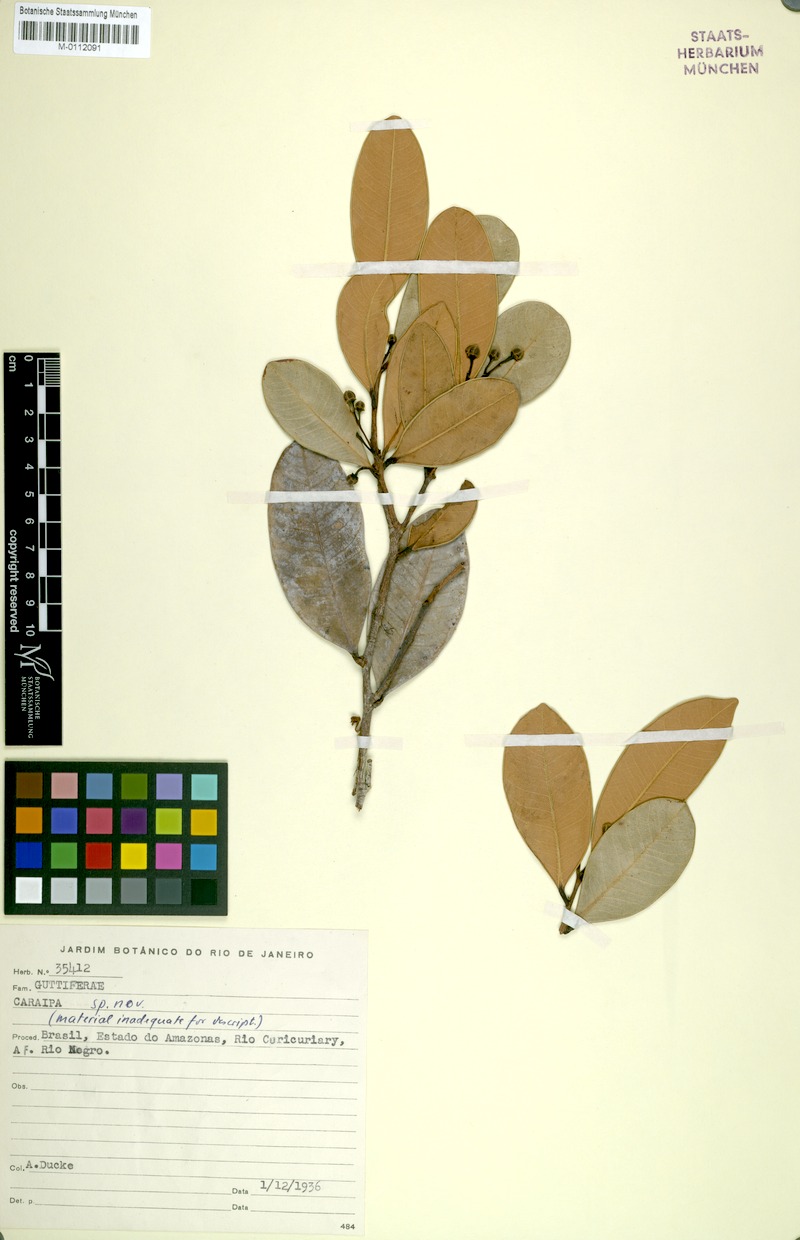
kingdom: Plantae
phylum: Tracheophyta
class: Magnoliopsida
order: Malpighiales
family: Calophyllaceae
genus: Caraipa
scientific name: Caraipa multinervia
